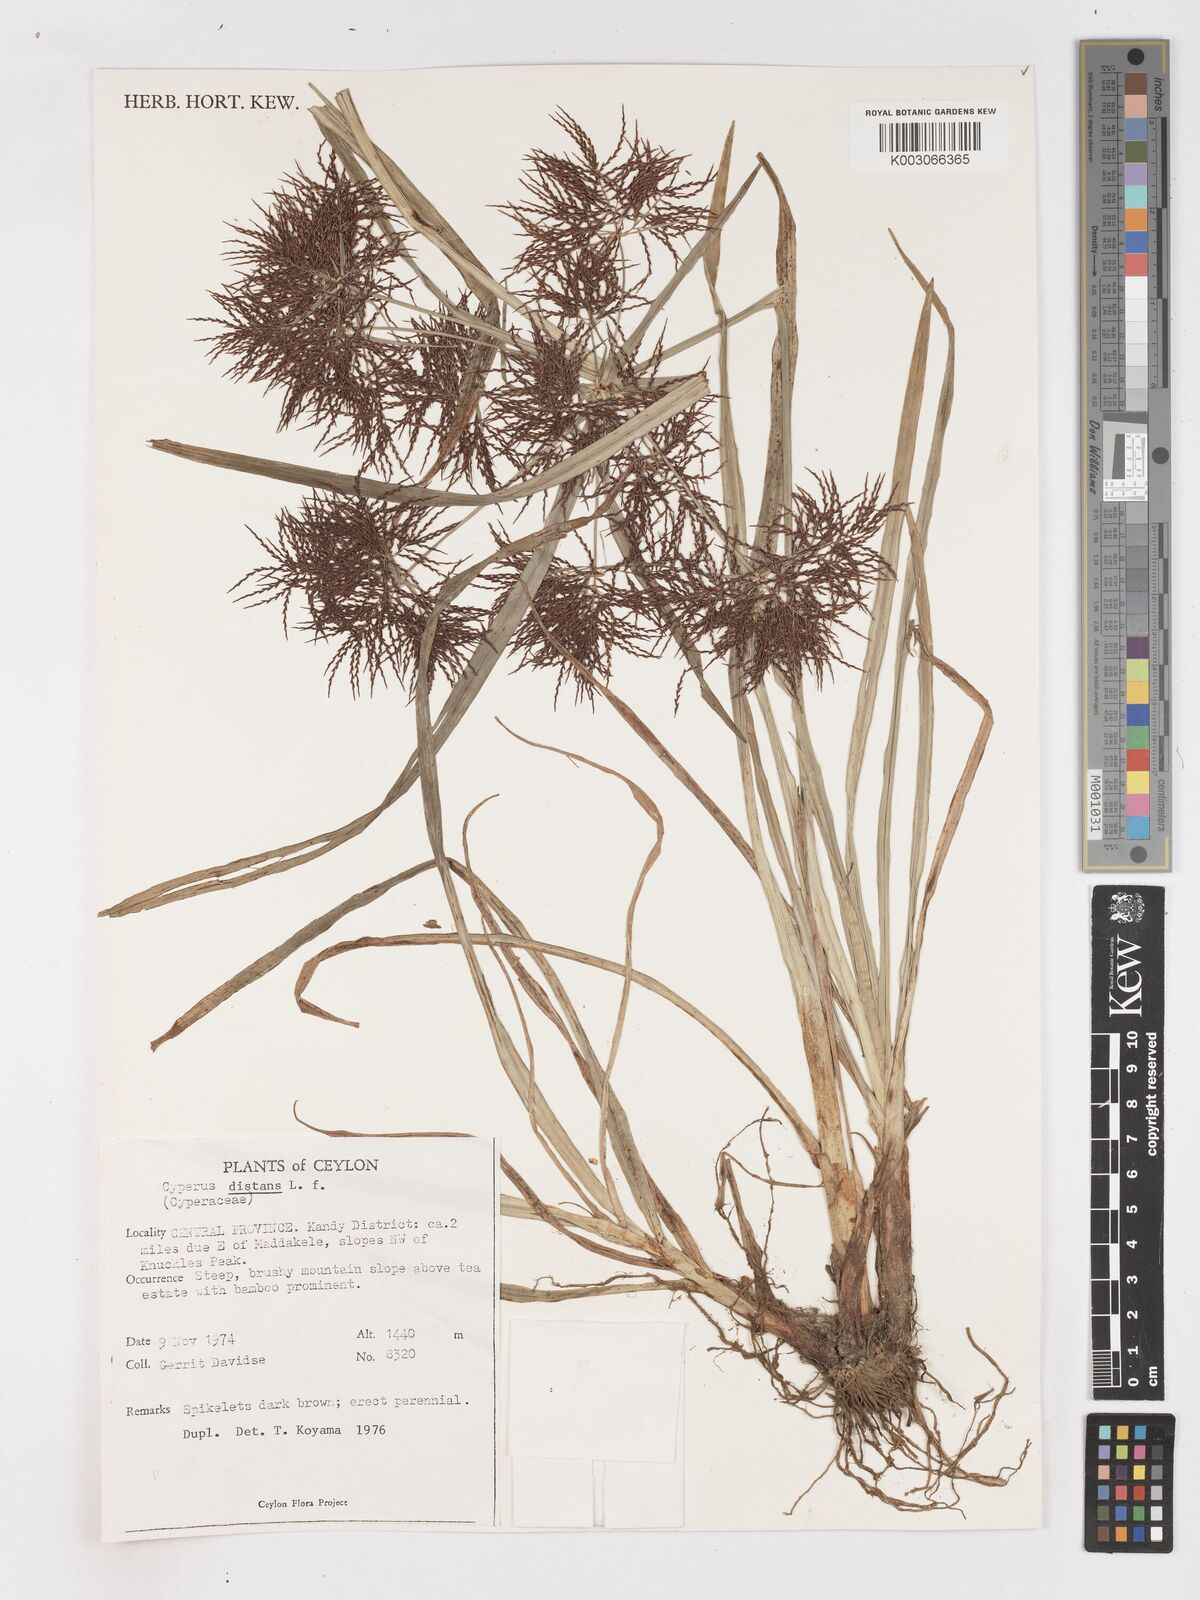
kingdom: Plantae
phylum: Tracheophyta
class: Liliopsida
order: Poales
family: Cyperaceae
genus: Cyperus
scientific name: Cyperus distans
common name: Slender cyperus
